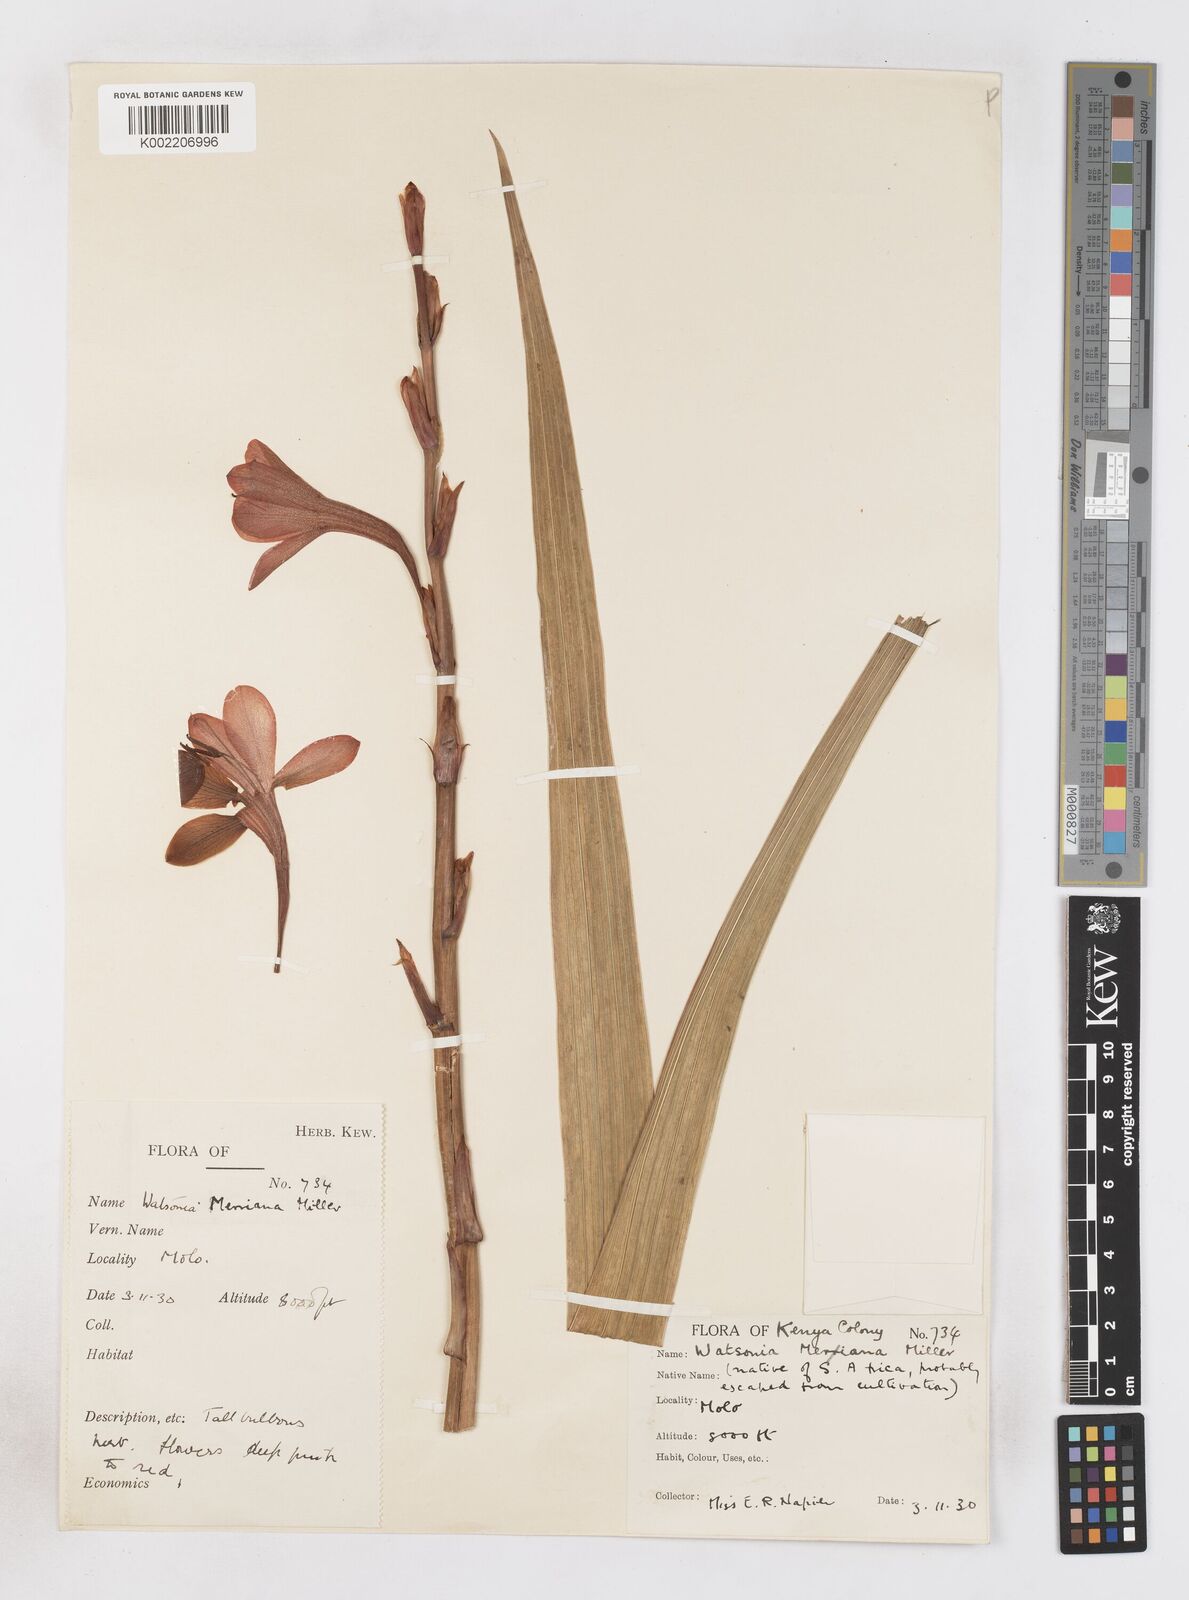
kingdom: Plantae
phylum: Tracheophyta
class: Liliopsida
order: Asparagales
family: Iridaceae
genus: Watsonia
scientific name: Watsonia meriana
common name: Bulbil bugle-lily
